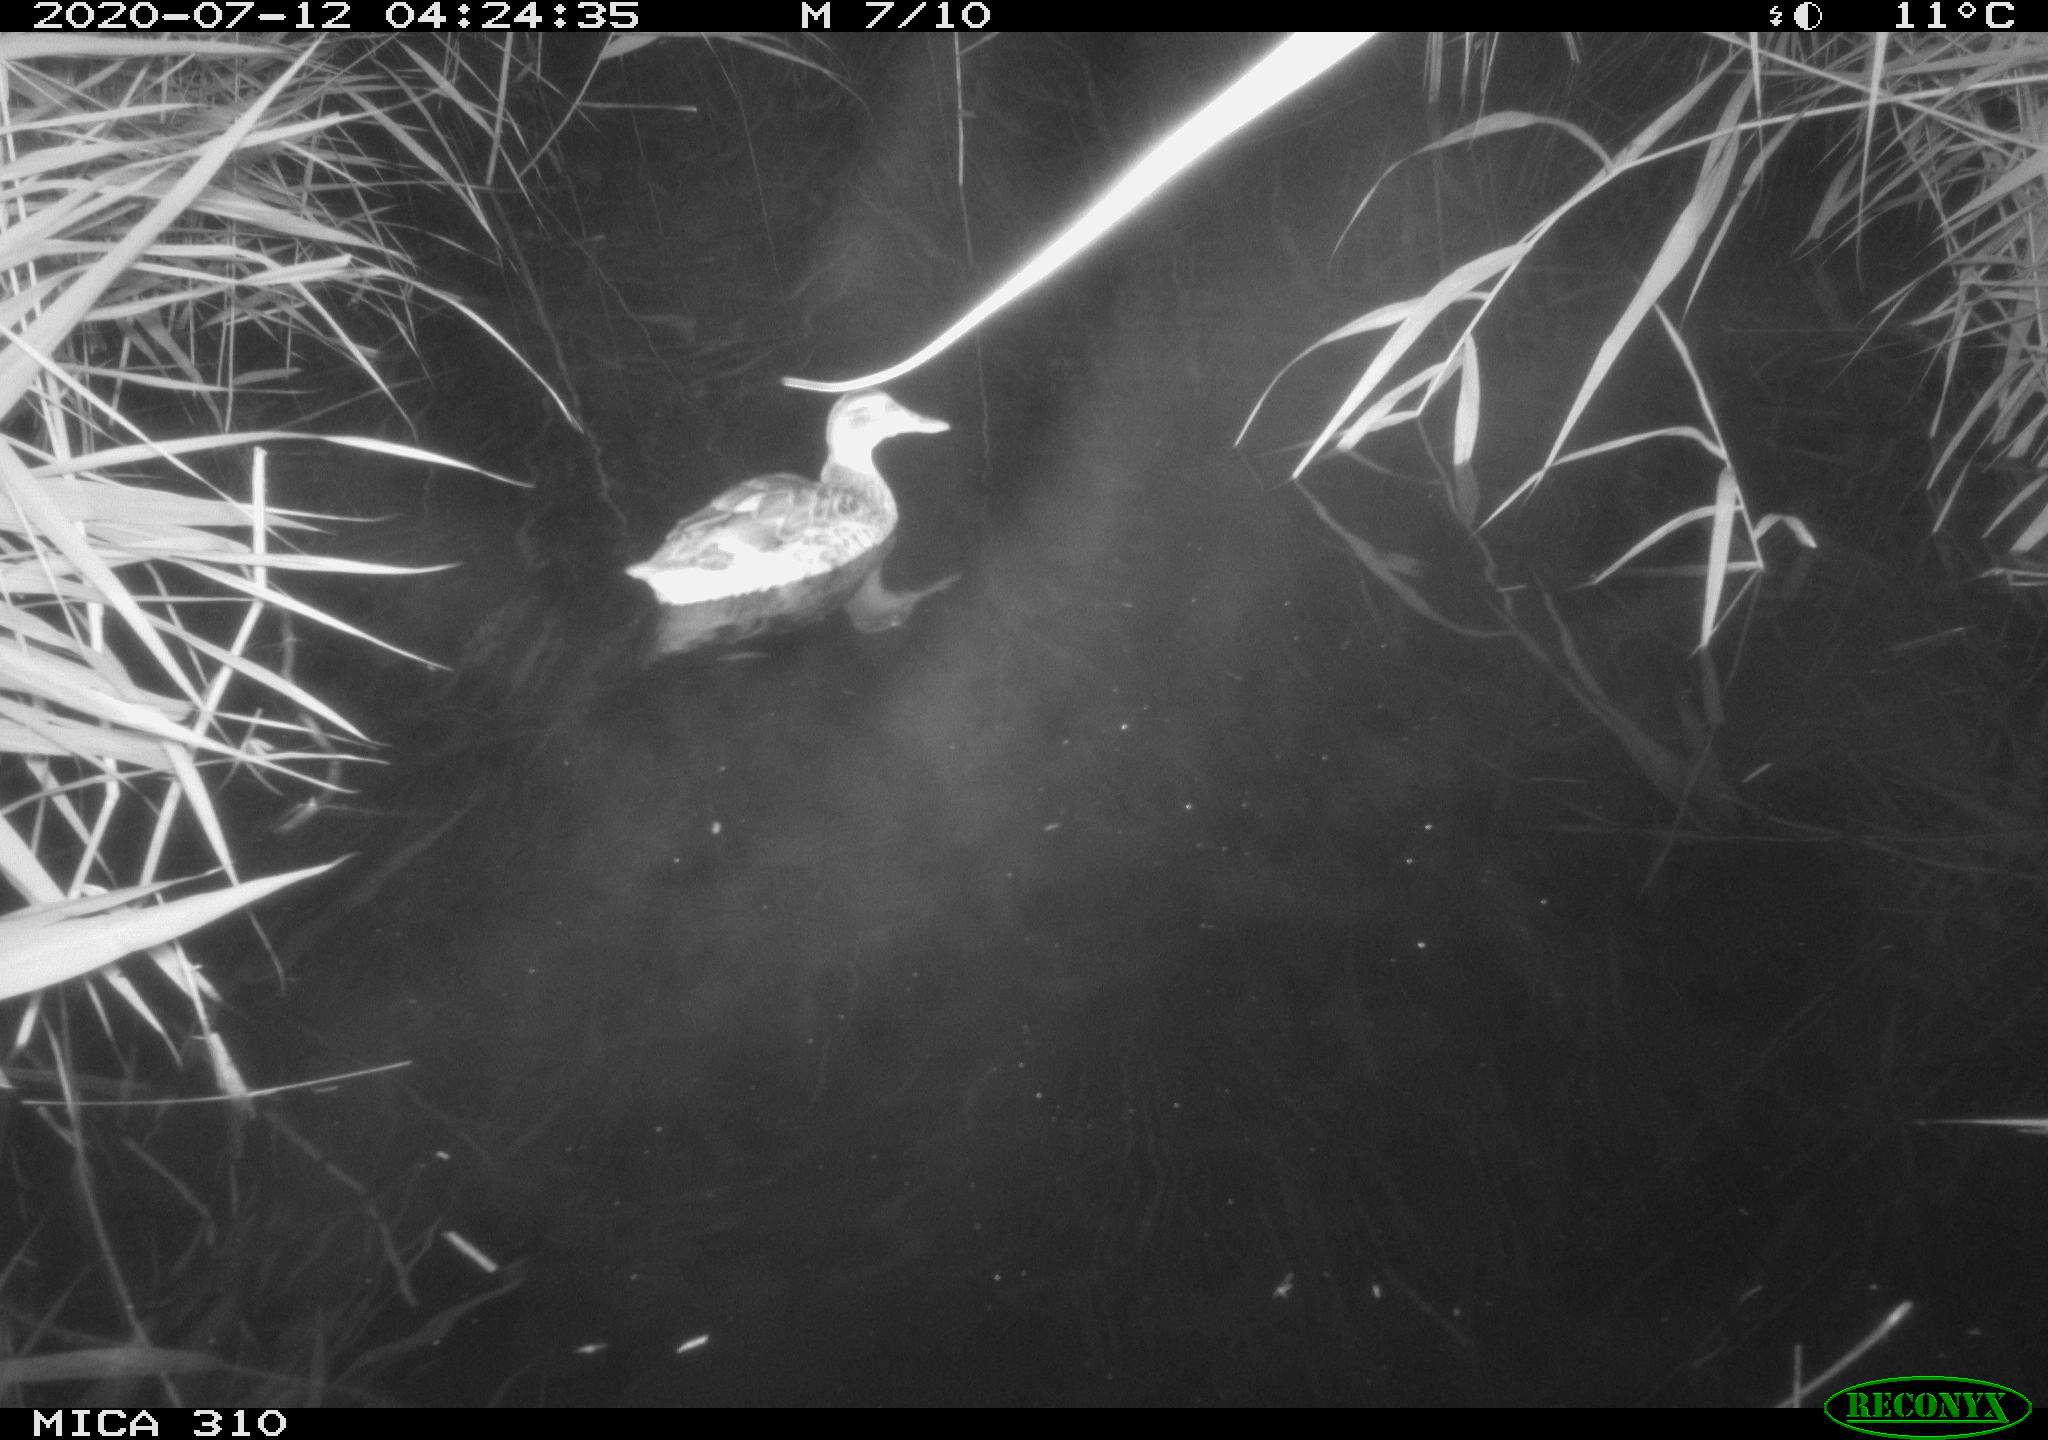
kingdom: Animalia
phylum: Chordata
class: Aves
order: Anseriformes
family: Anatidae
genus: Anas
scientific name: Anas platyrhynchos
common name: Mallard
